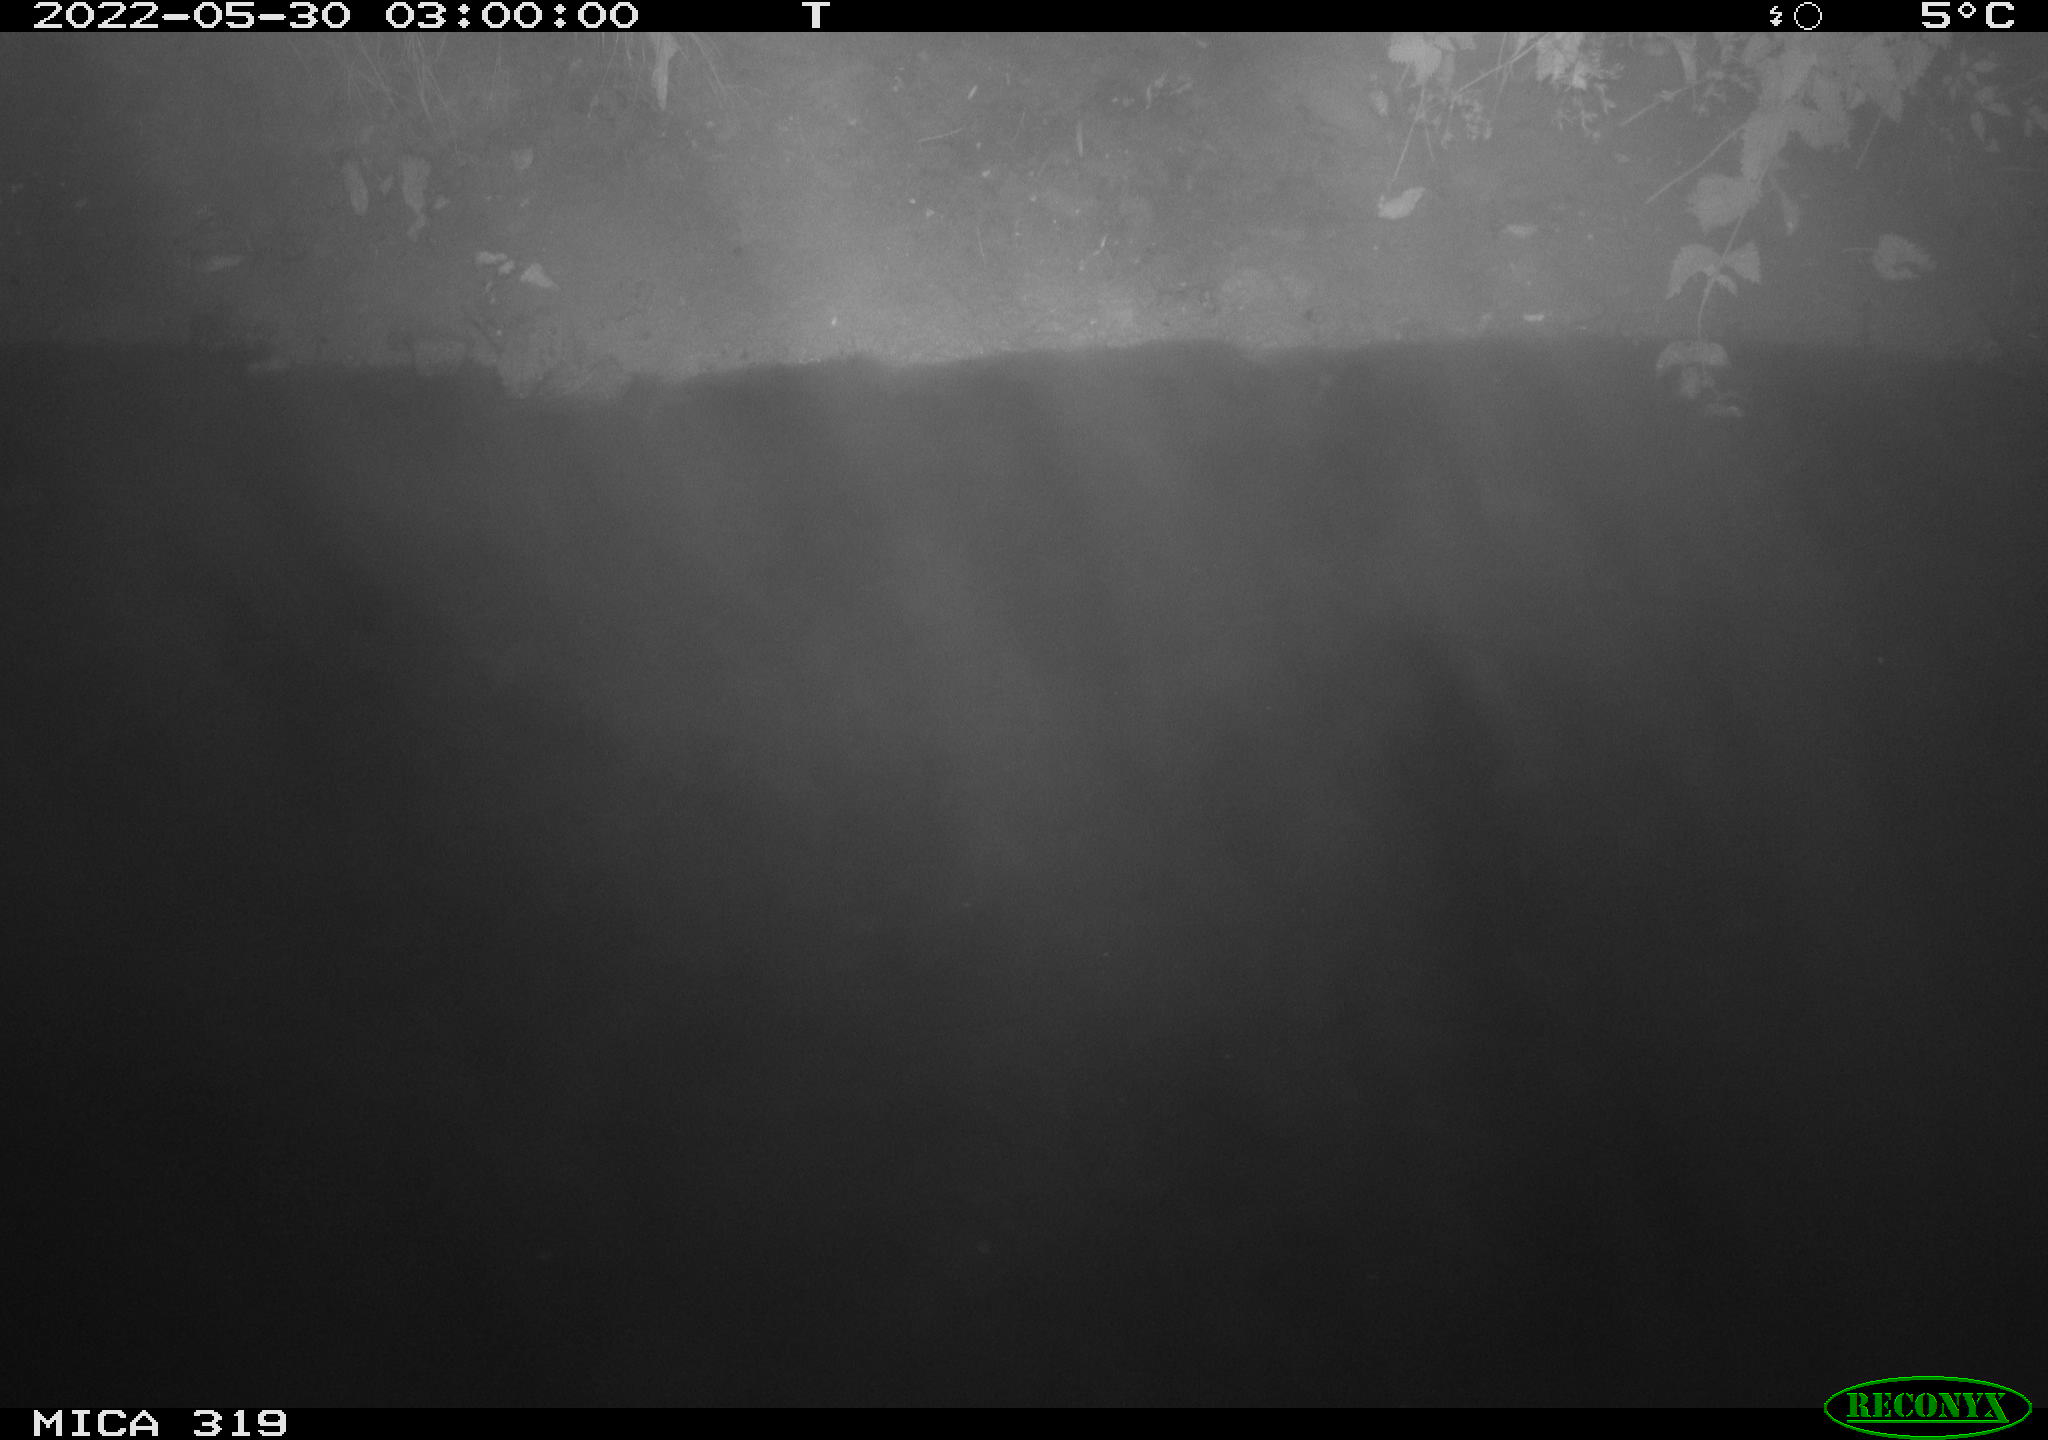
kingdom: Animalia
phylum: Chordata
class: Mammalia
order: Rodentia
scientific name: Rodentia
